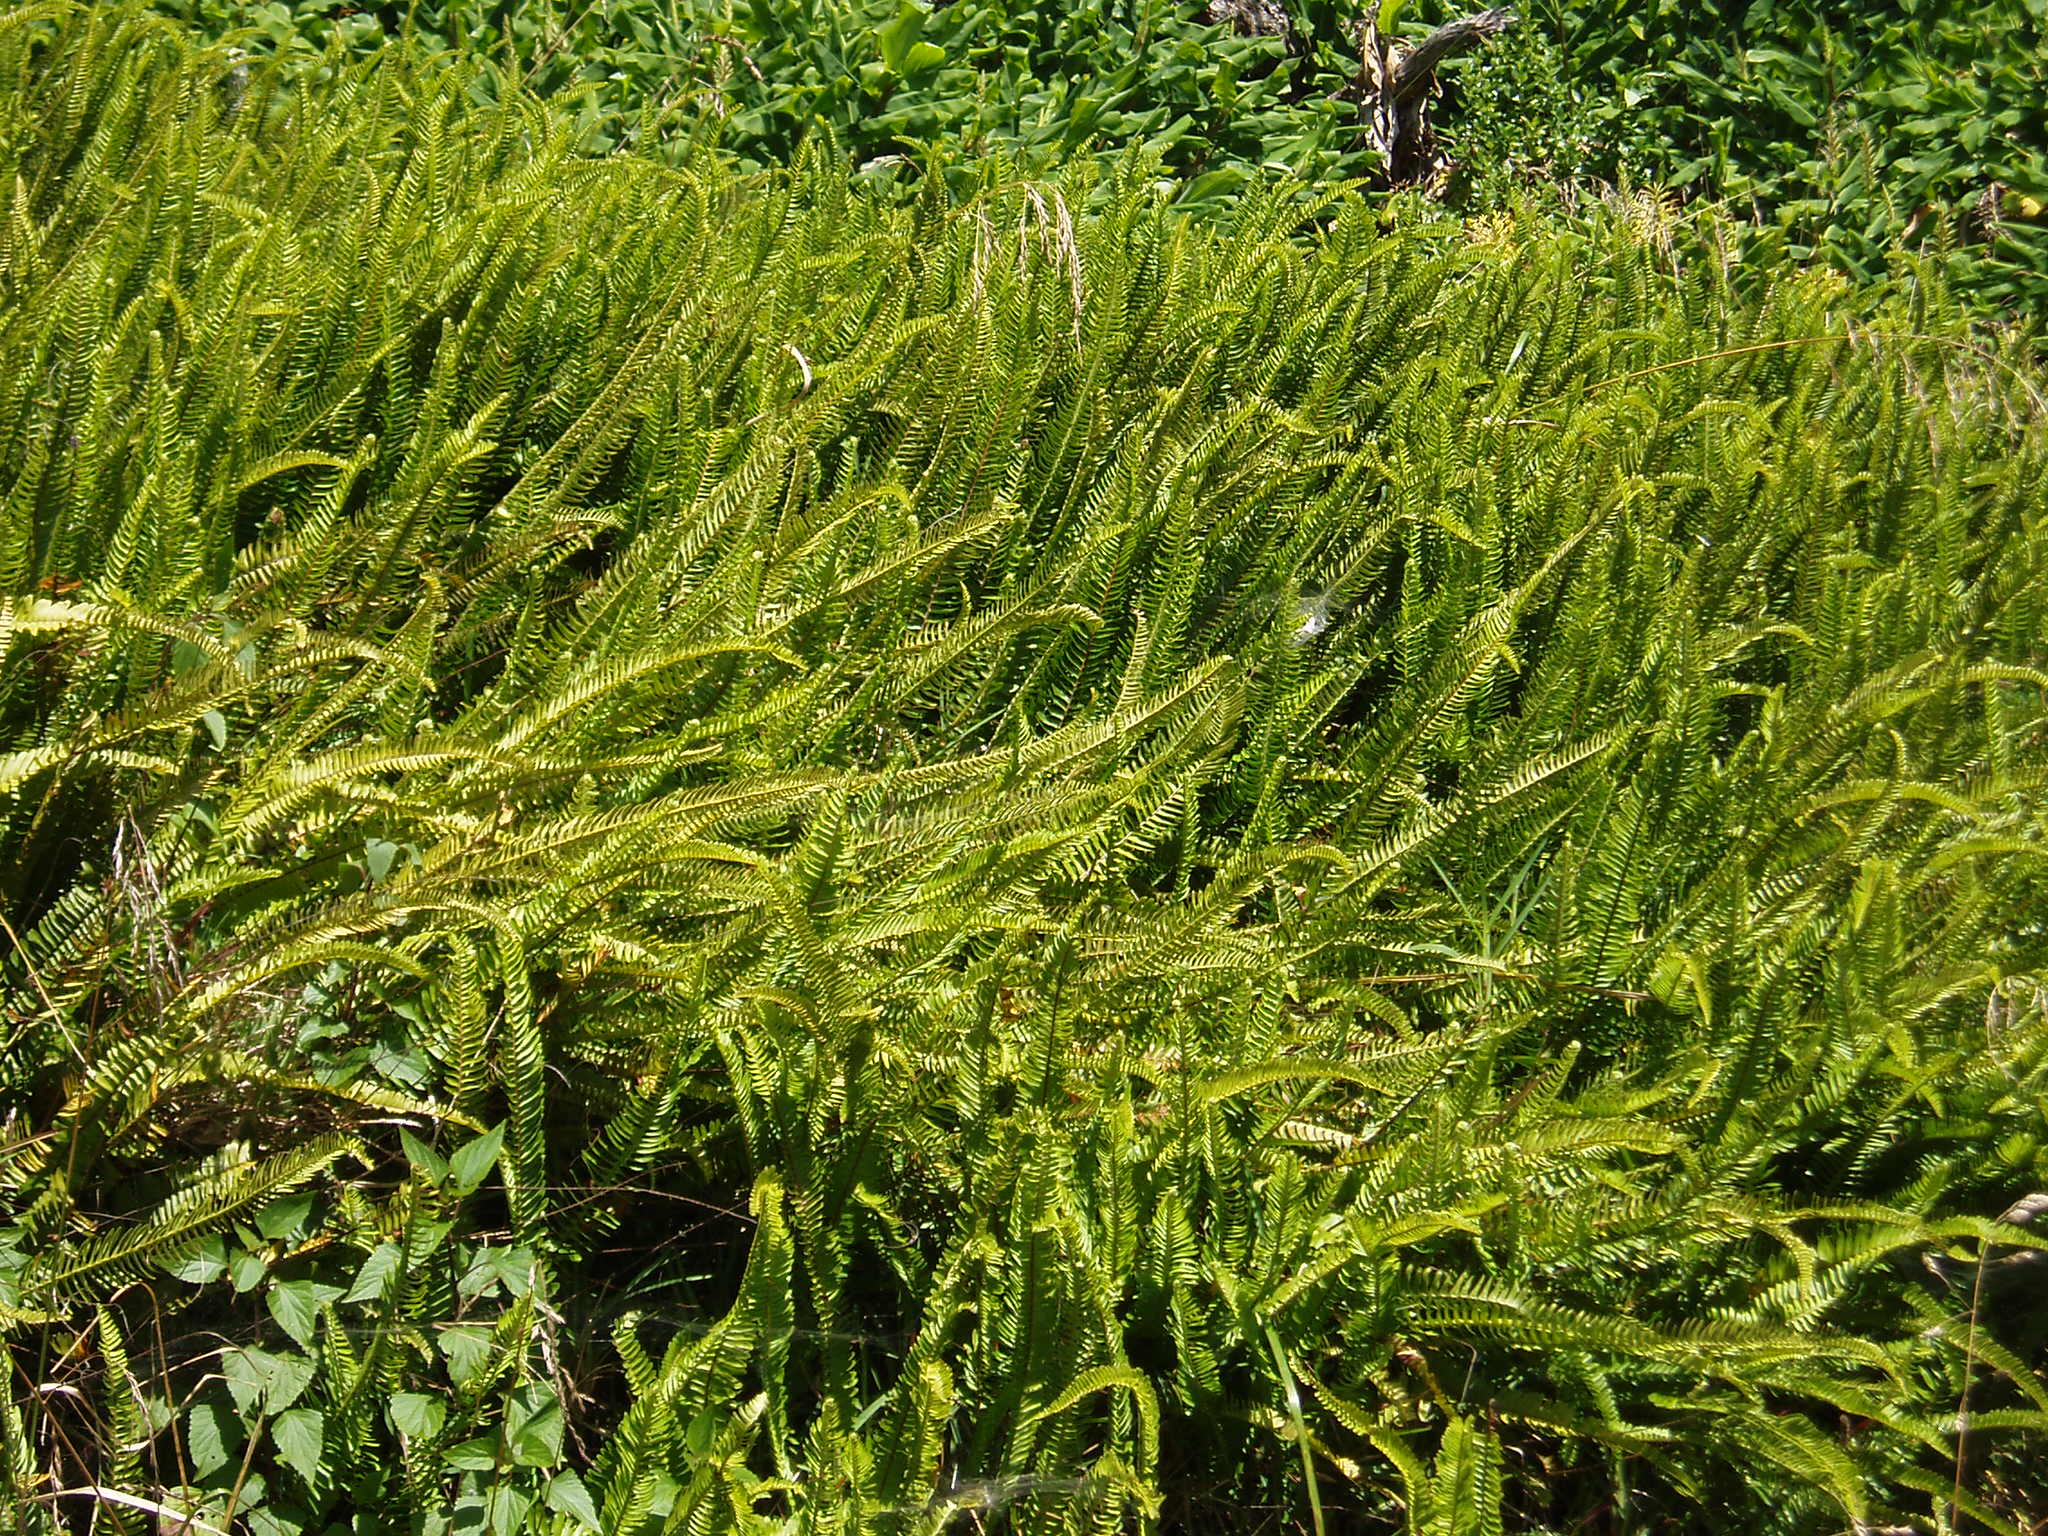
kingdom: Plantae
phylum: Tracheophyta
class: Polypodiopsida
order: Polypodiales
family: Nephrolepidaceae
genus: Nephrolepis
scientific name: Nephrolepis cordifolia
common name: Narrow swordfern
